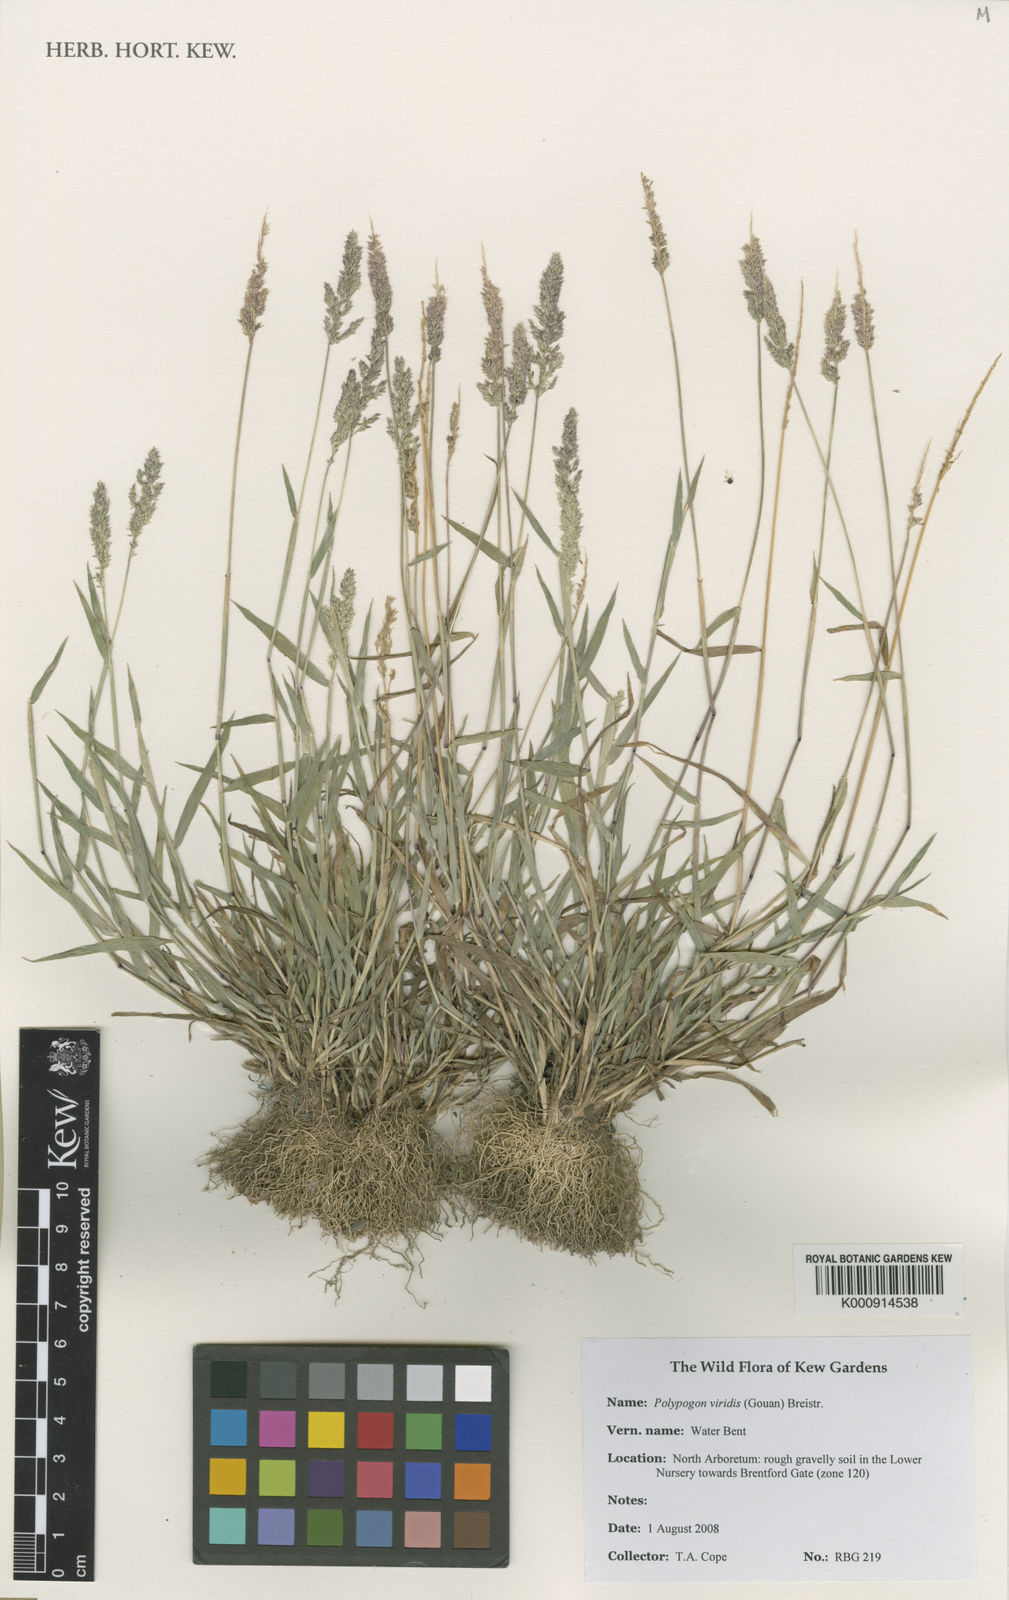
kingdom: Plantae
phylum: Tracheophyta
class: Liliopsida
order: Poales
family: Poaceae
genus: Polypogon
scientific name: Polypogon viridis
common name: Water bent
